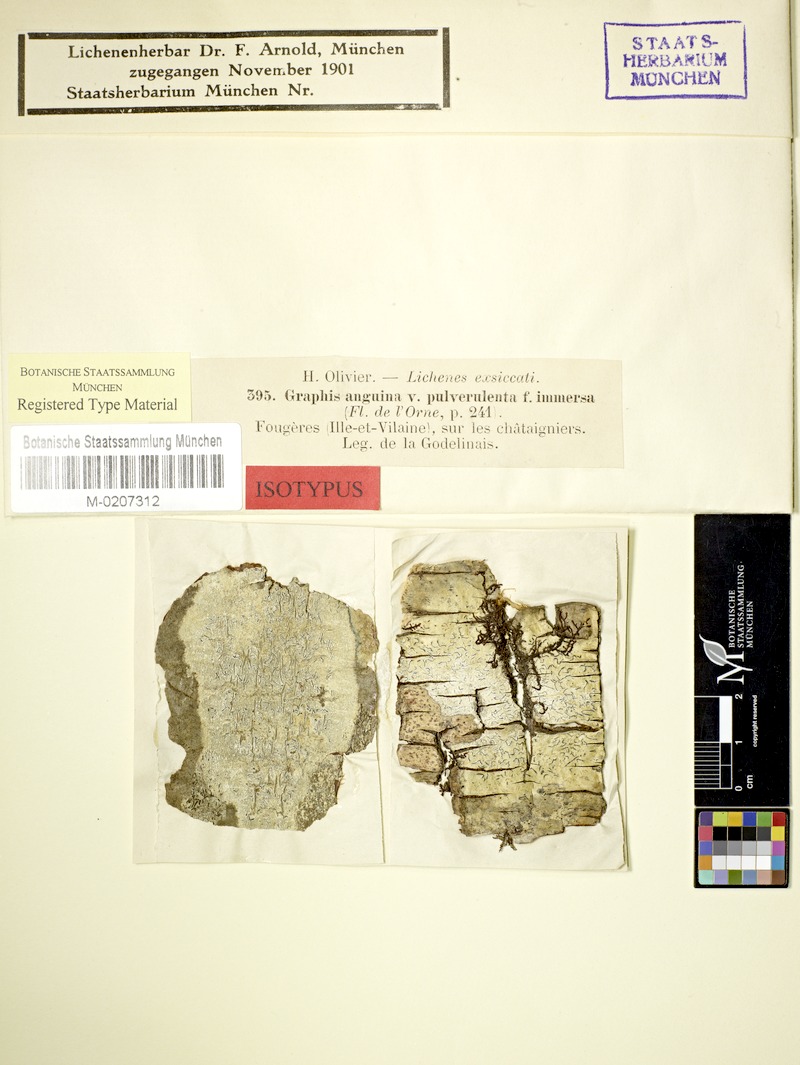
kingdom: Fungi
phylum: Ascomycota
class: Lecanoromycetes
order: Ostropales
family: Graphidaceae
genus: Graphina
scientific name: Graphina anguina
